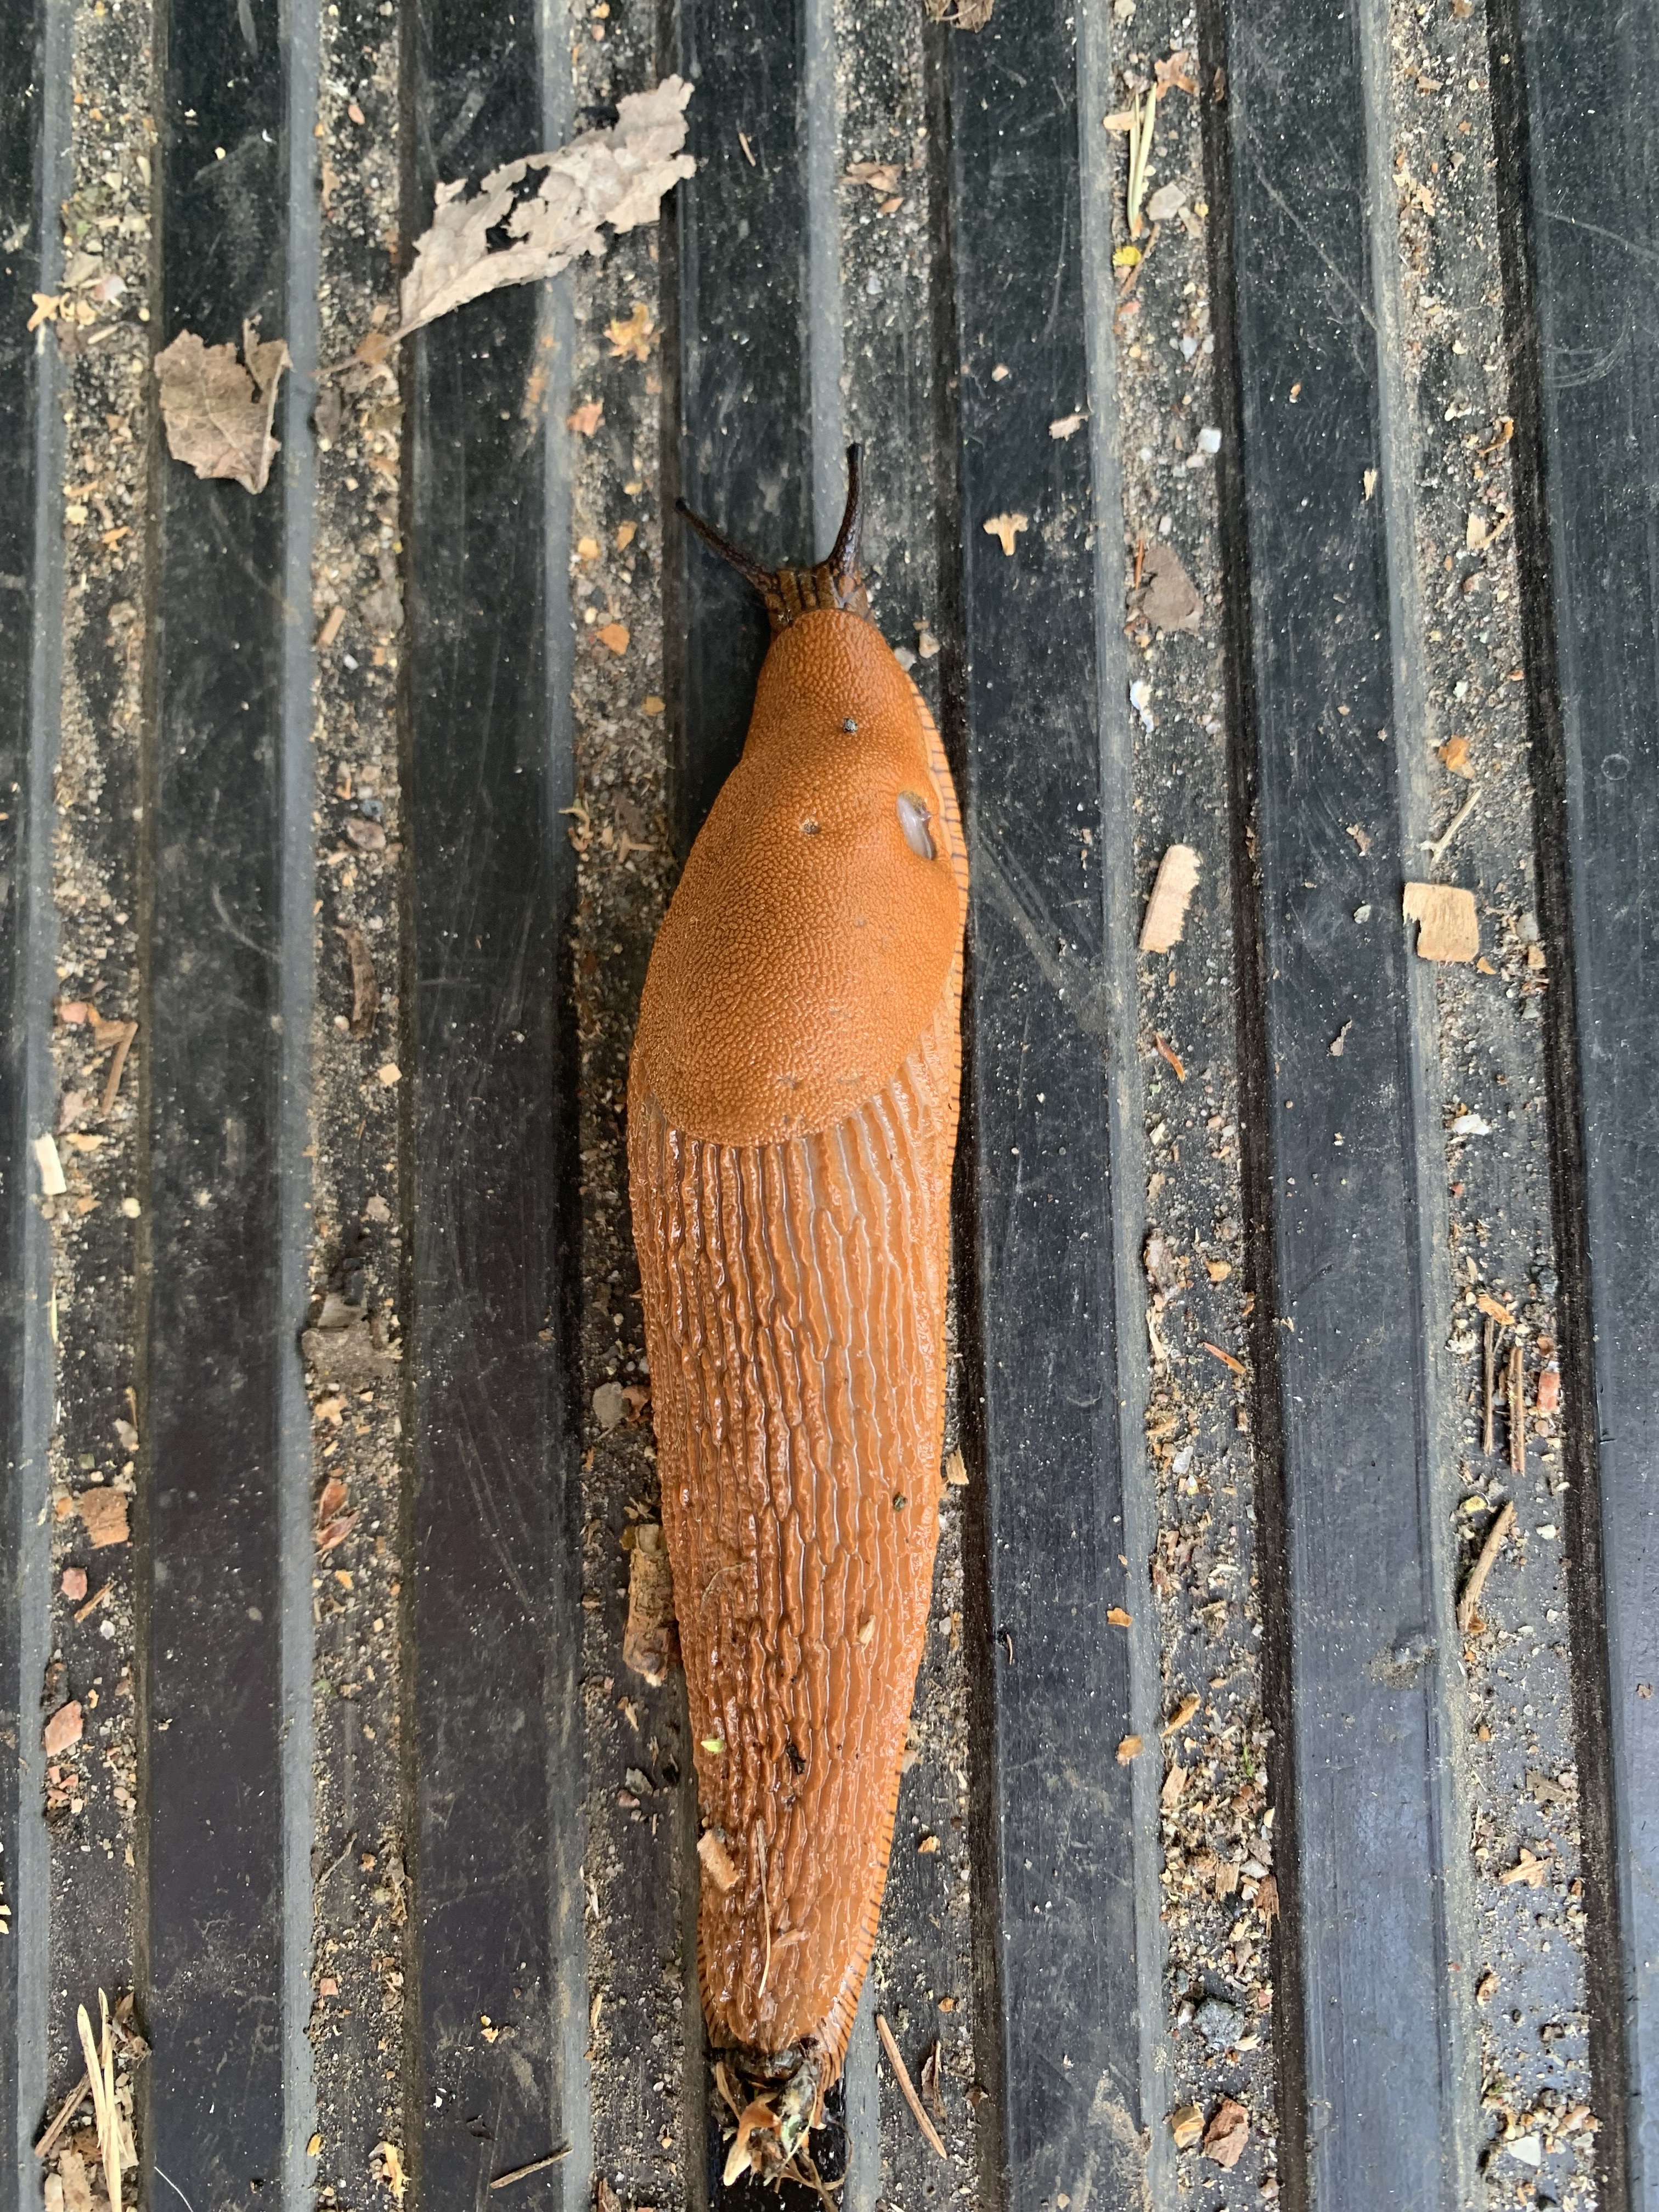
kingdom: Animalia
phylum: Mollusca
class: Gastropoda
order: Stylommatophora
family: Arionidae
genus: Arion
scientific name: Arion vulgaris
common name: Lusitanian slug
